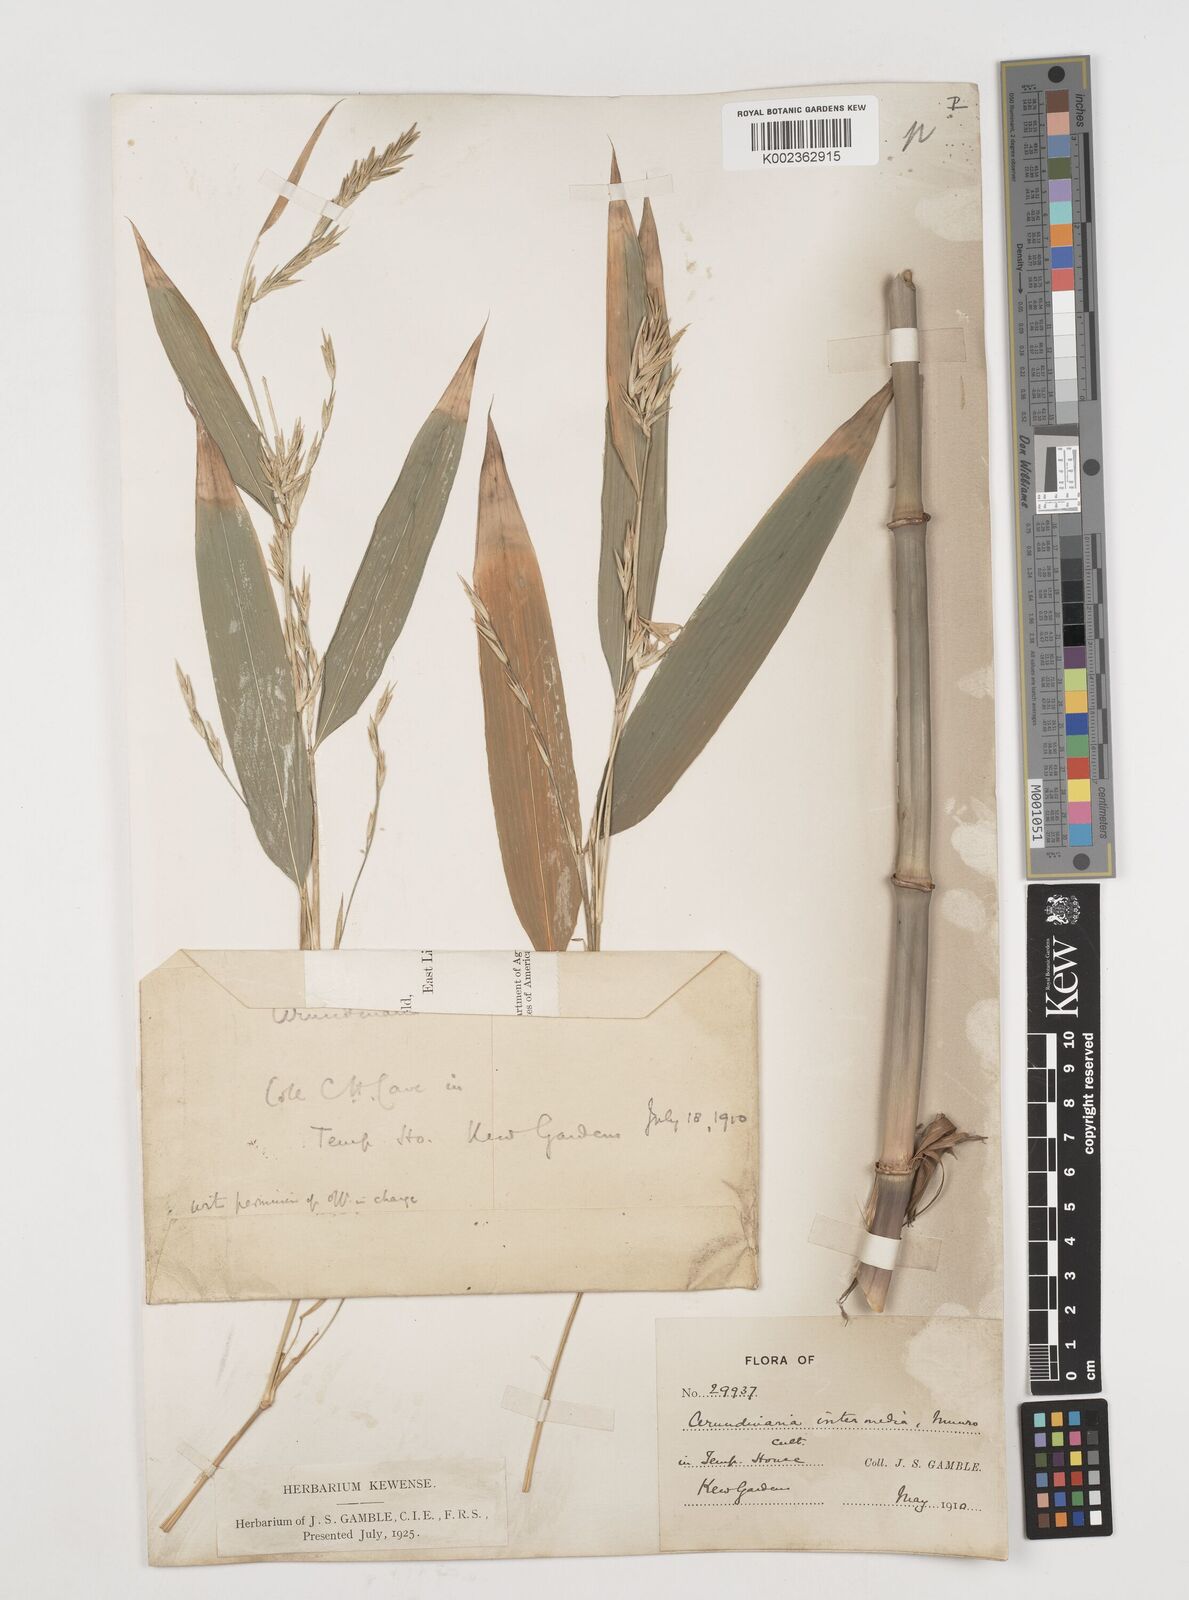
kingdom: Plantae
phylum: Tracheophyta
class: Liliopsida
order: Poales
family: Poaceae
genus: Drepanostachyum
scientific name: Drepanostachyum intermedium
